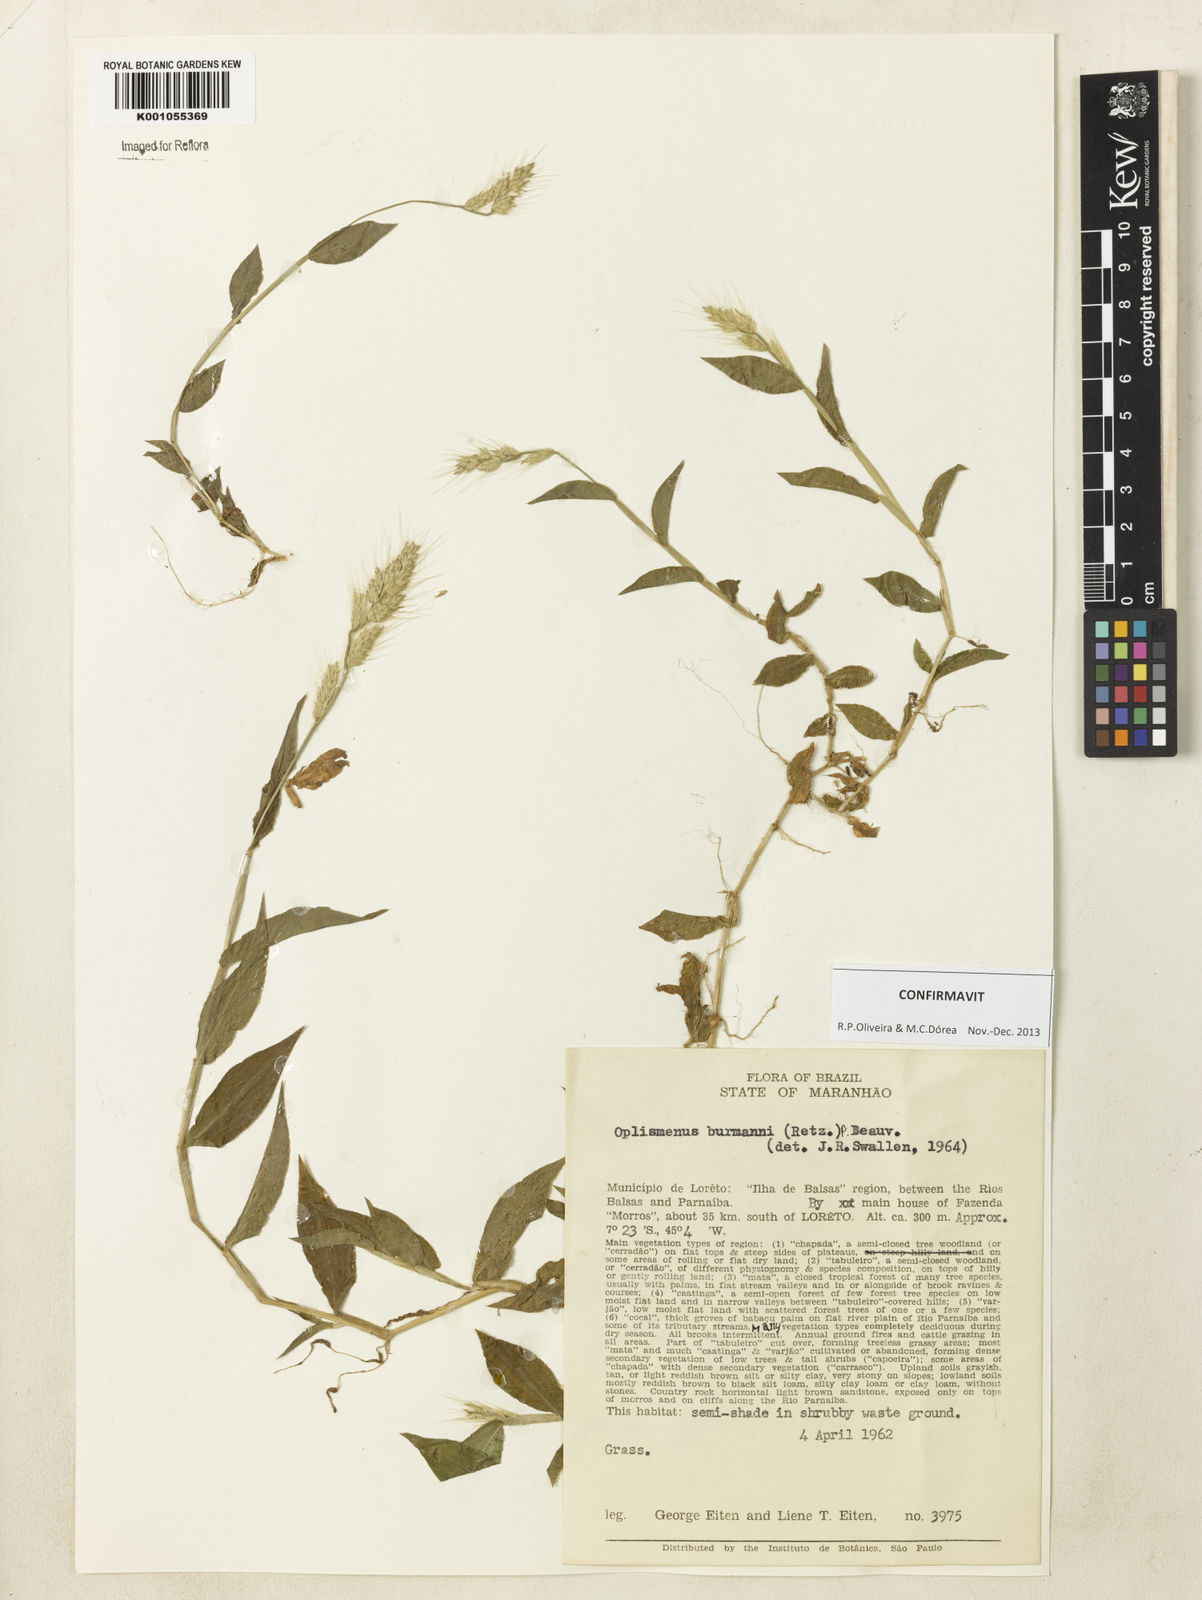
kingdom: Plantae
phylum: Tracheophyta
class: Liliopsida
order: Poales
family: Poaceae
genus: Oplismenus
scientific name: Oplismenus burmanni
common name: Burmann's basketgrass
